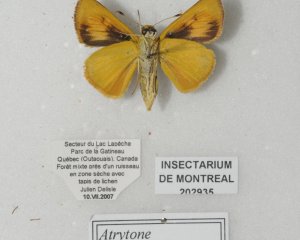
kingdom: Animalia
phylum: Arthropoda
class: Insecta
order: Lepidoptera
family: Hesperiidae
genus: Atrytone
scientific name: Atrytone delaware
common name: Delaware Skipper
